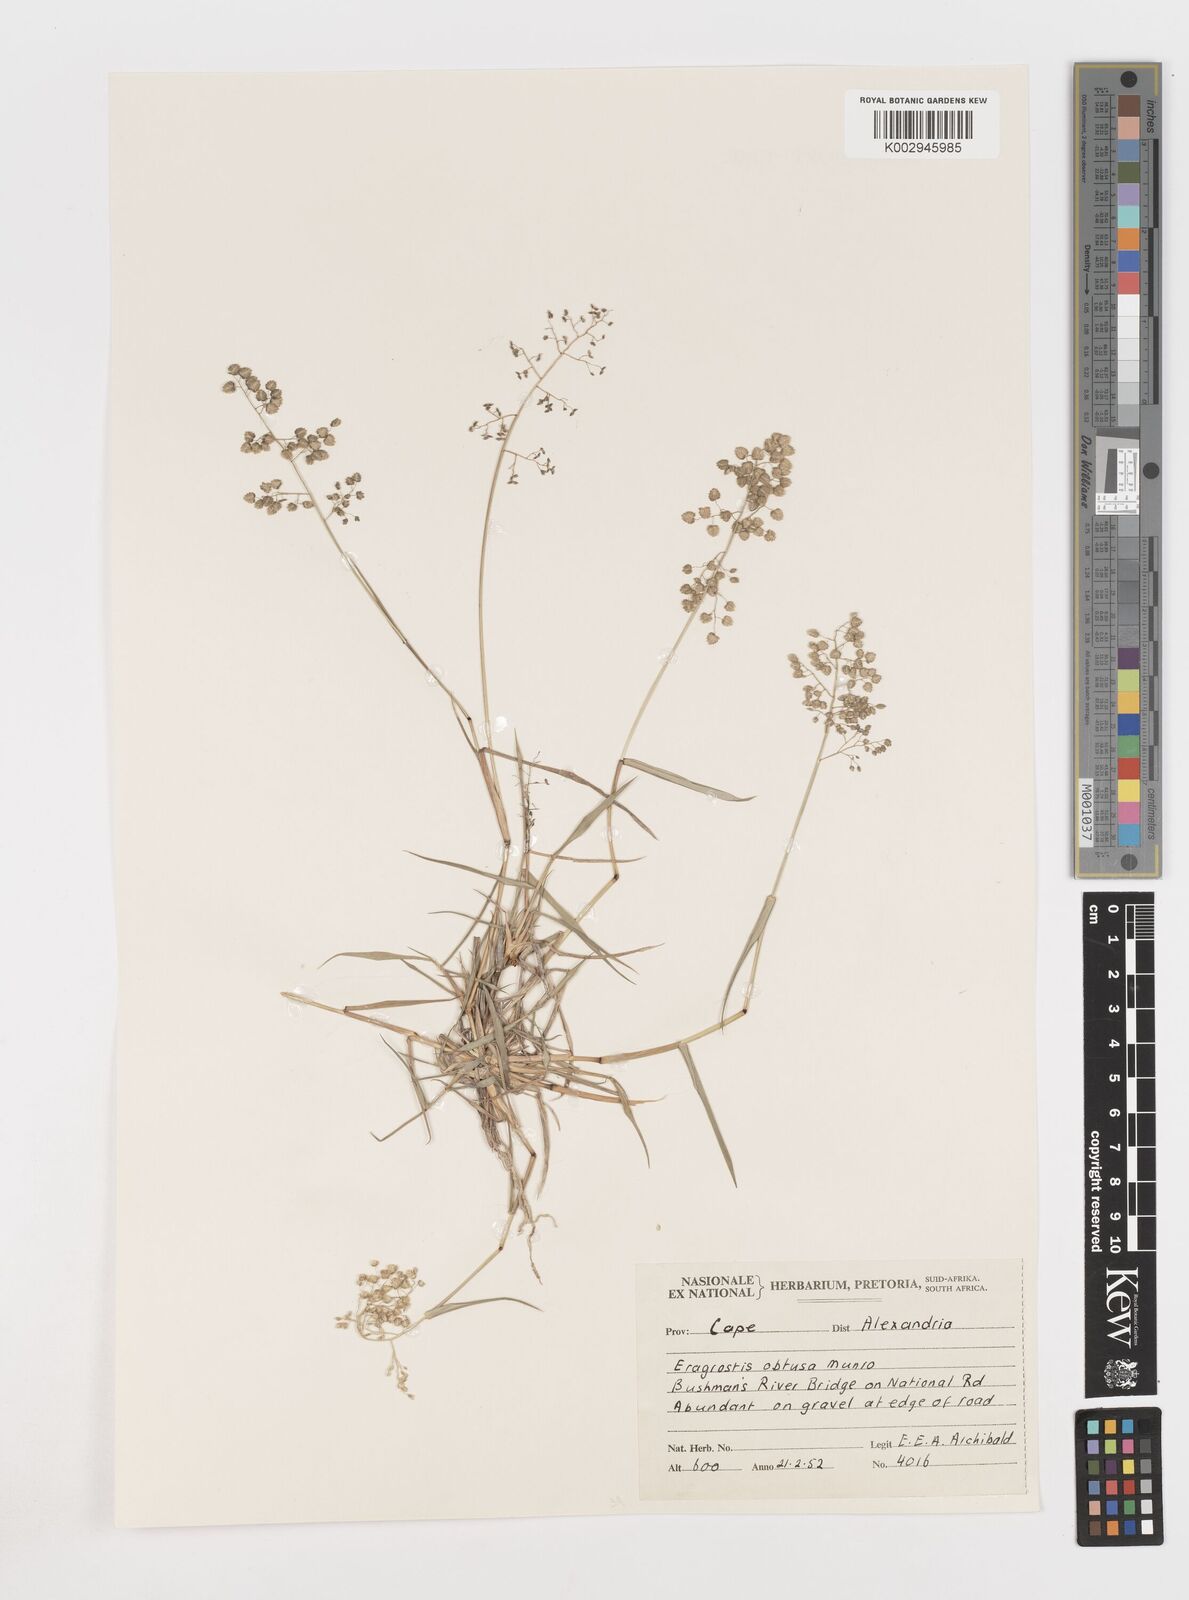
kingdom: Plantae
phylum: Tracheophyta
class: Liliopsida
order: Poales
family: Poaceae
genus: Eragrostis
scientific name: Eragrostis obtusa
